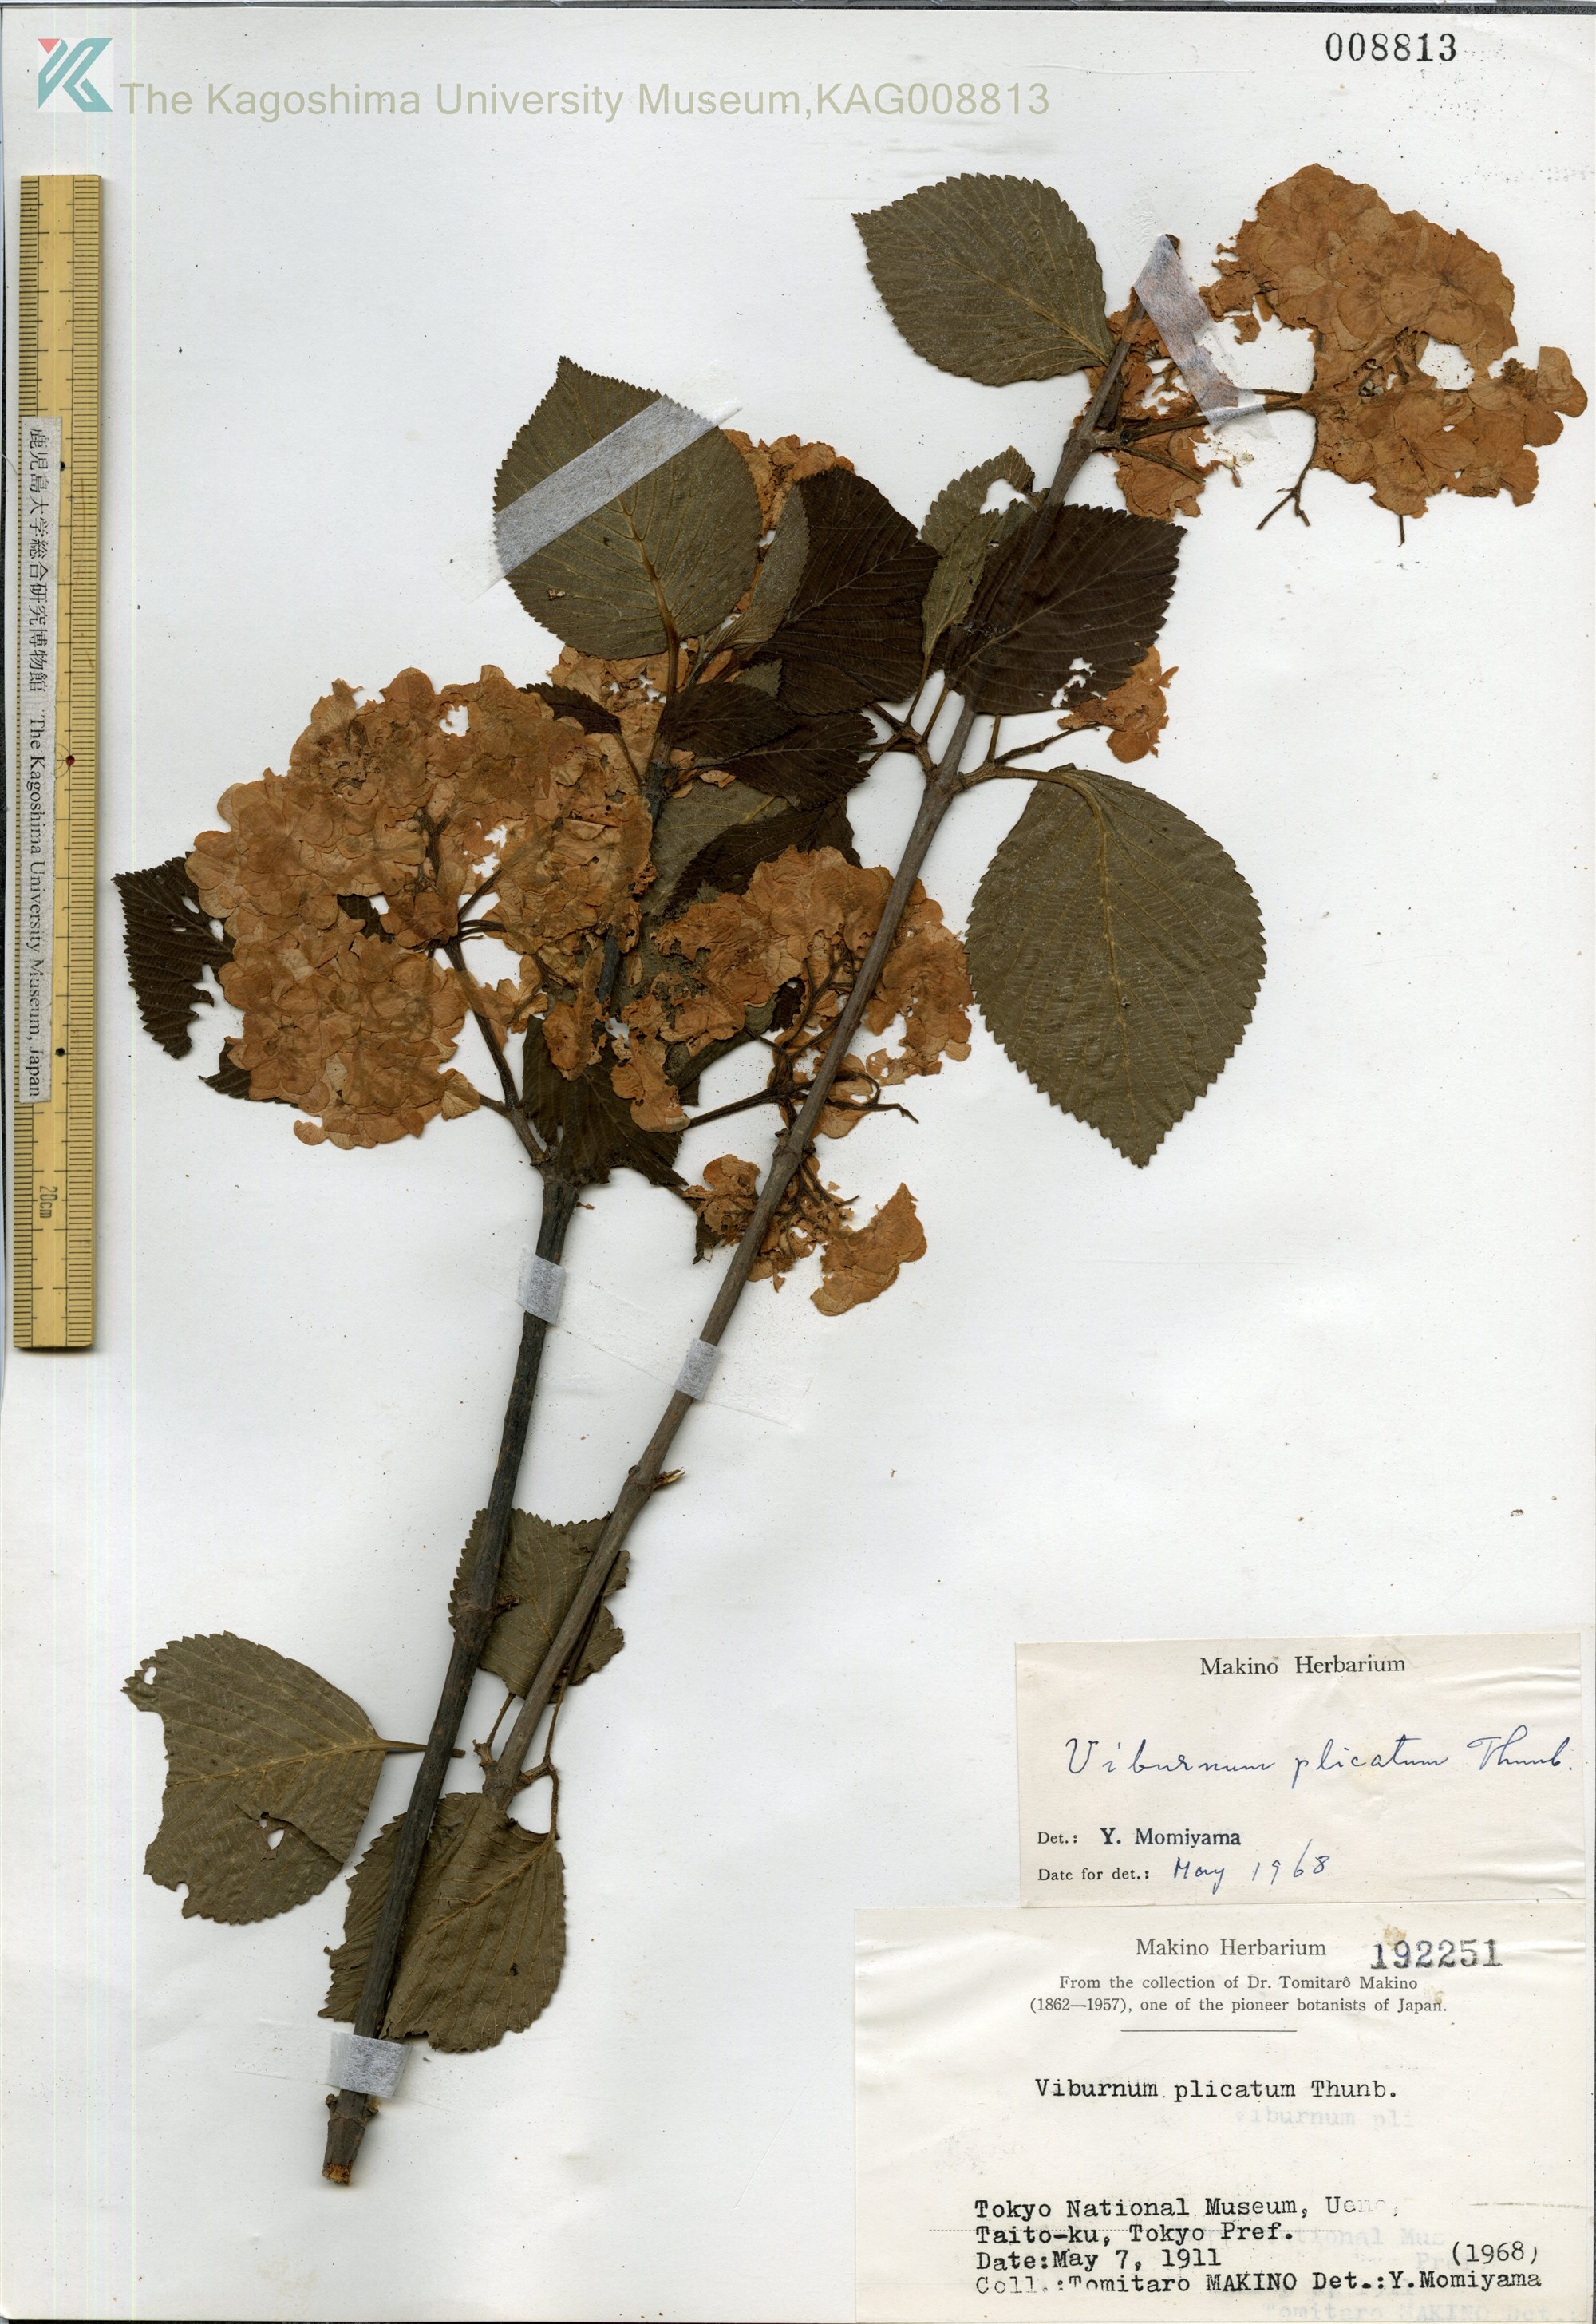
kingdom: Plantae
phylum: Tracheophyta
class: Magnoliopsida
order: Dipsacales
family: Viburnaceae
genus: Viburnum
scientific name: Viburnum plicatum
